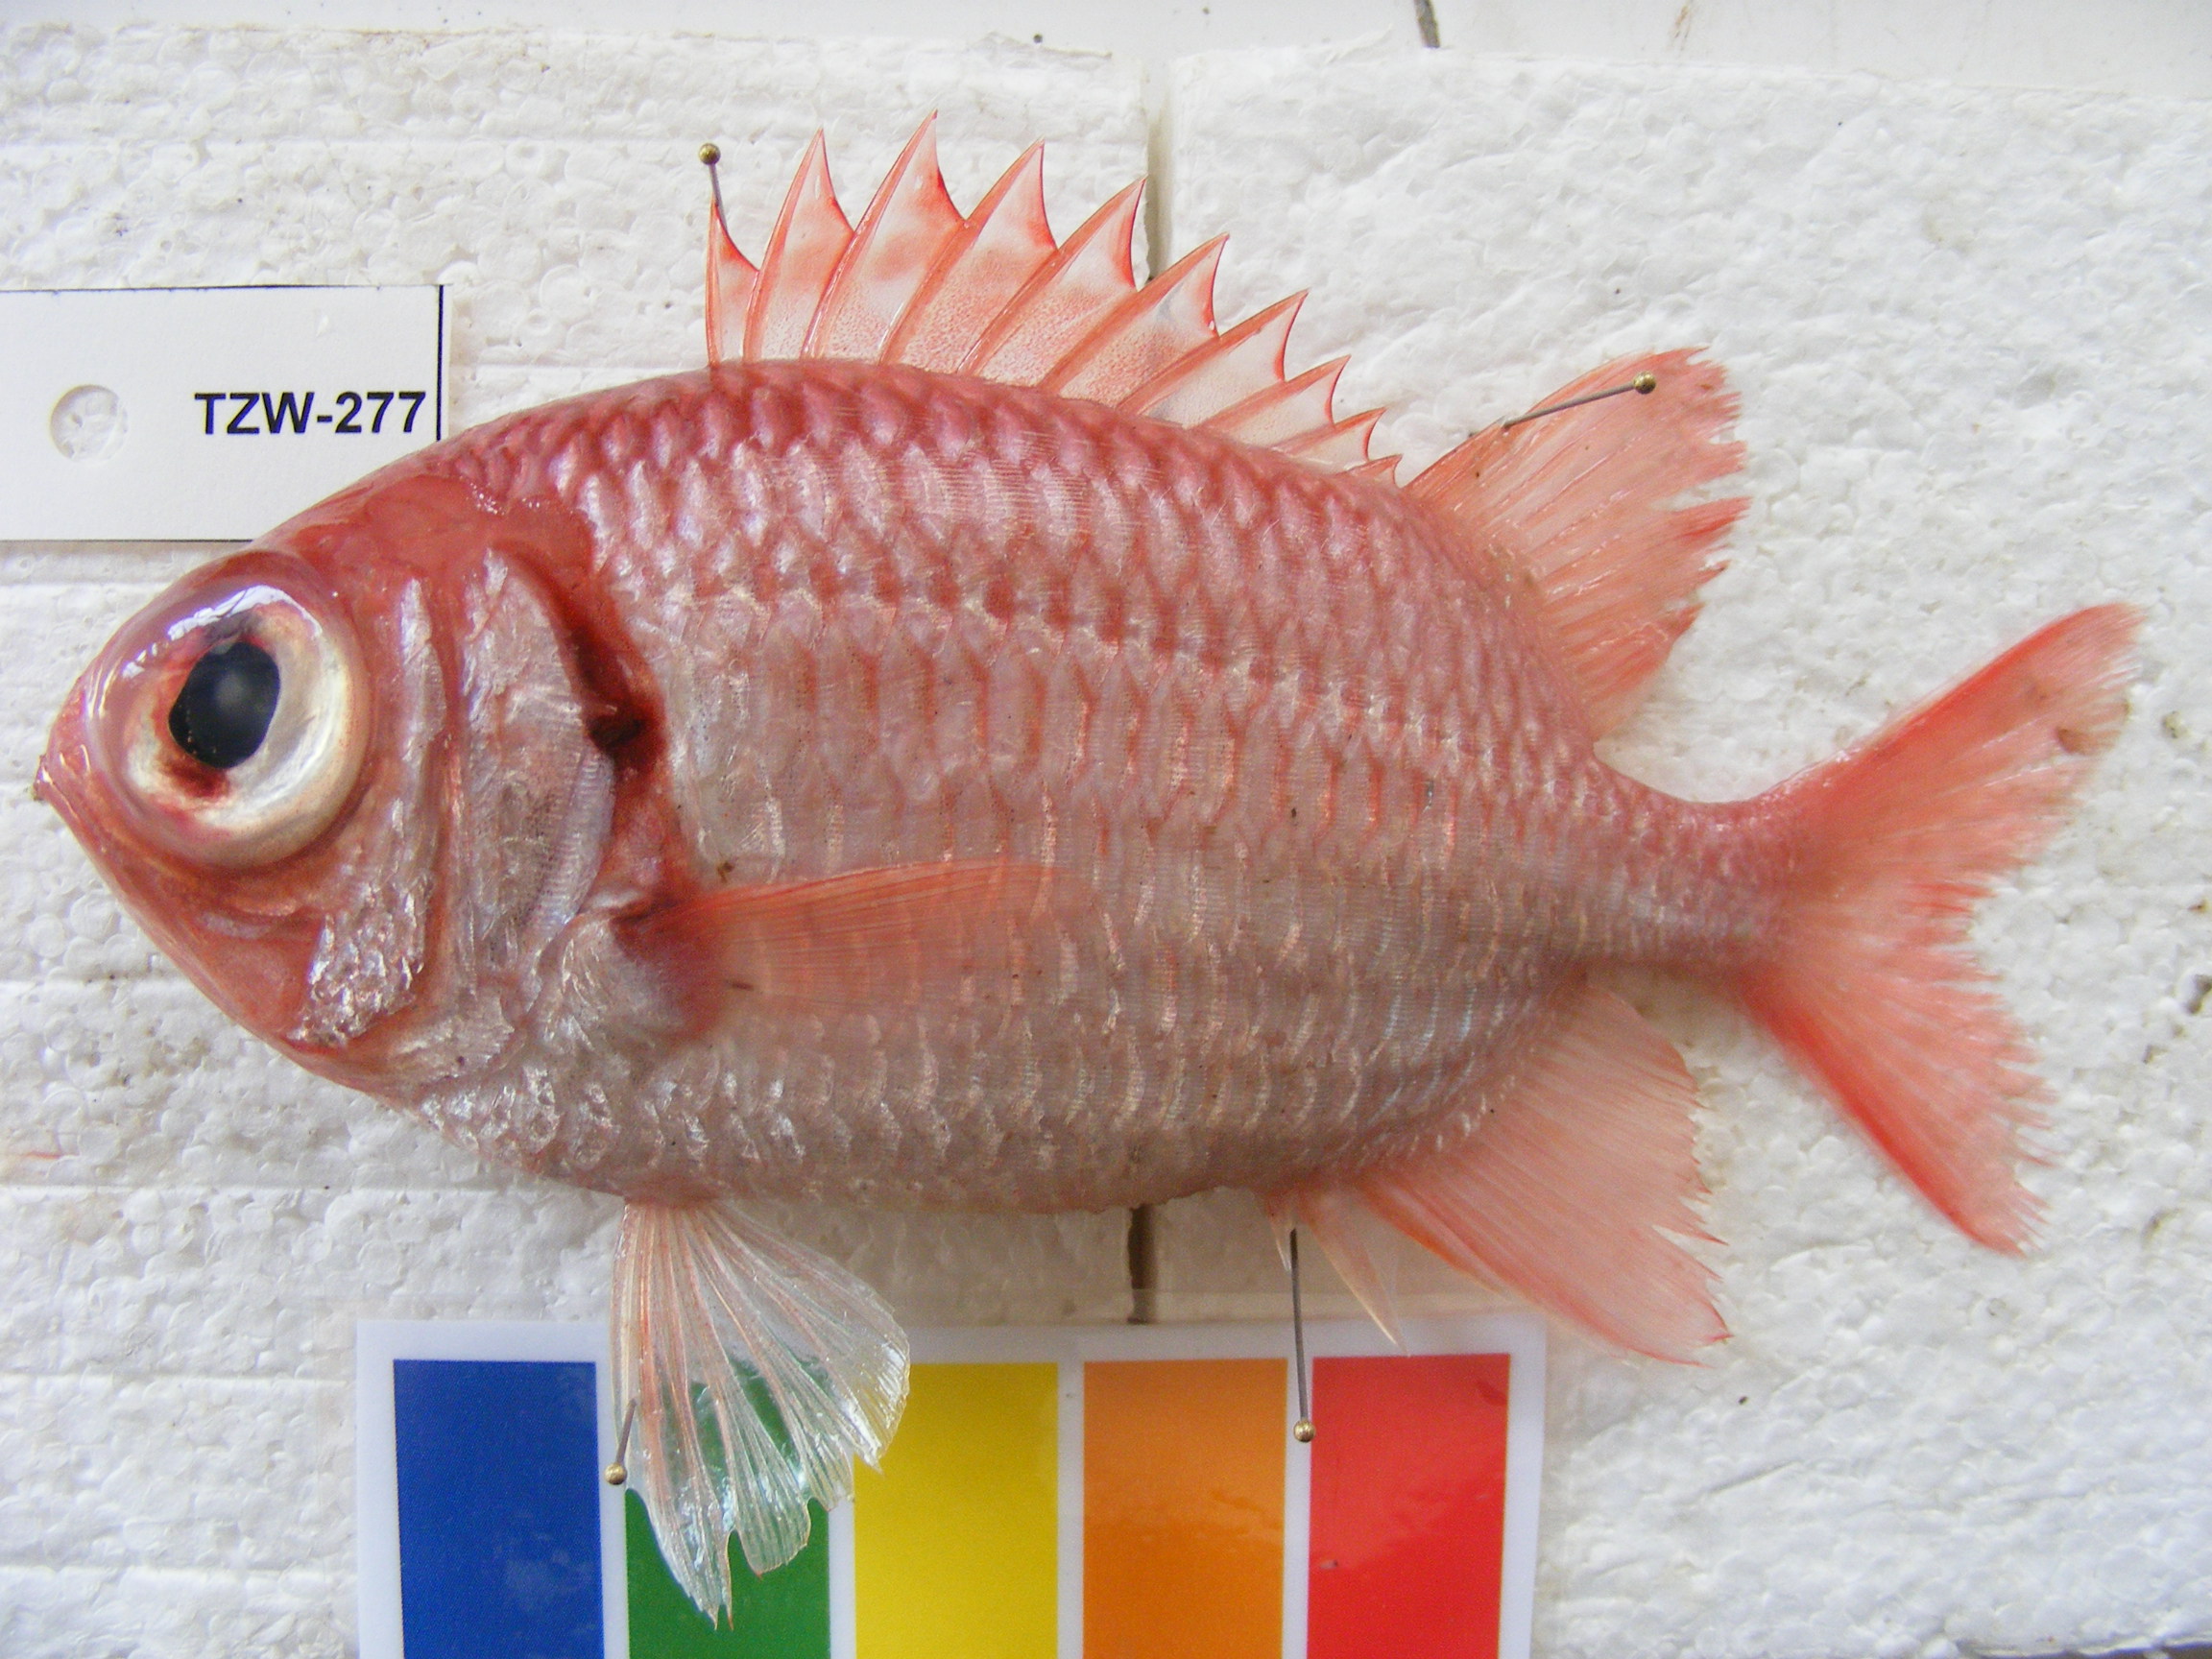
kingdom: Animalia
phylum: Chordata
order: Beryciformes
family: Holocentridae
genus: Myripristis
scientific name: Myripristis hexagona
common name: Blacktip soldierfish
